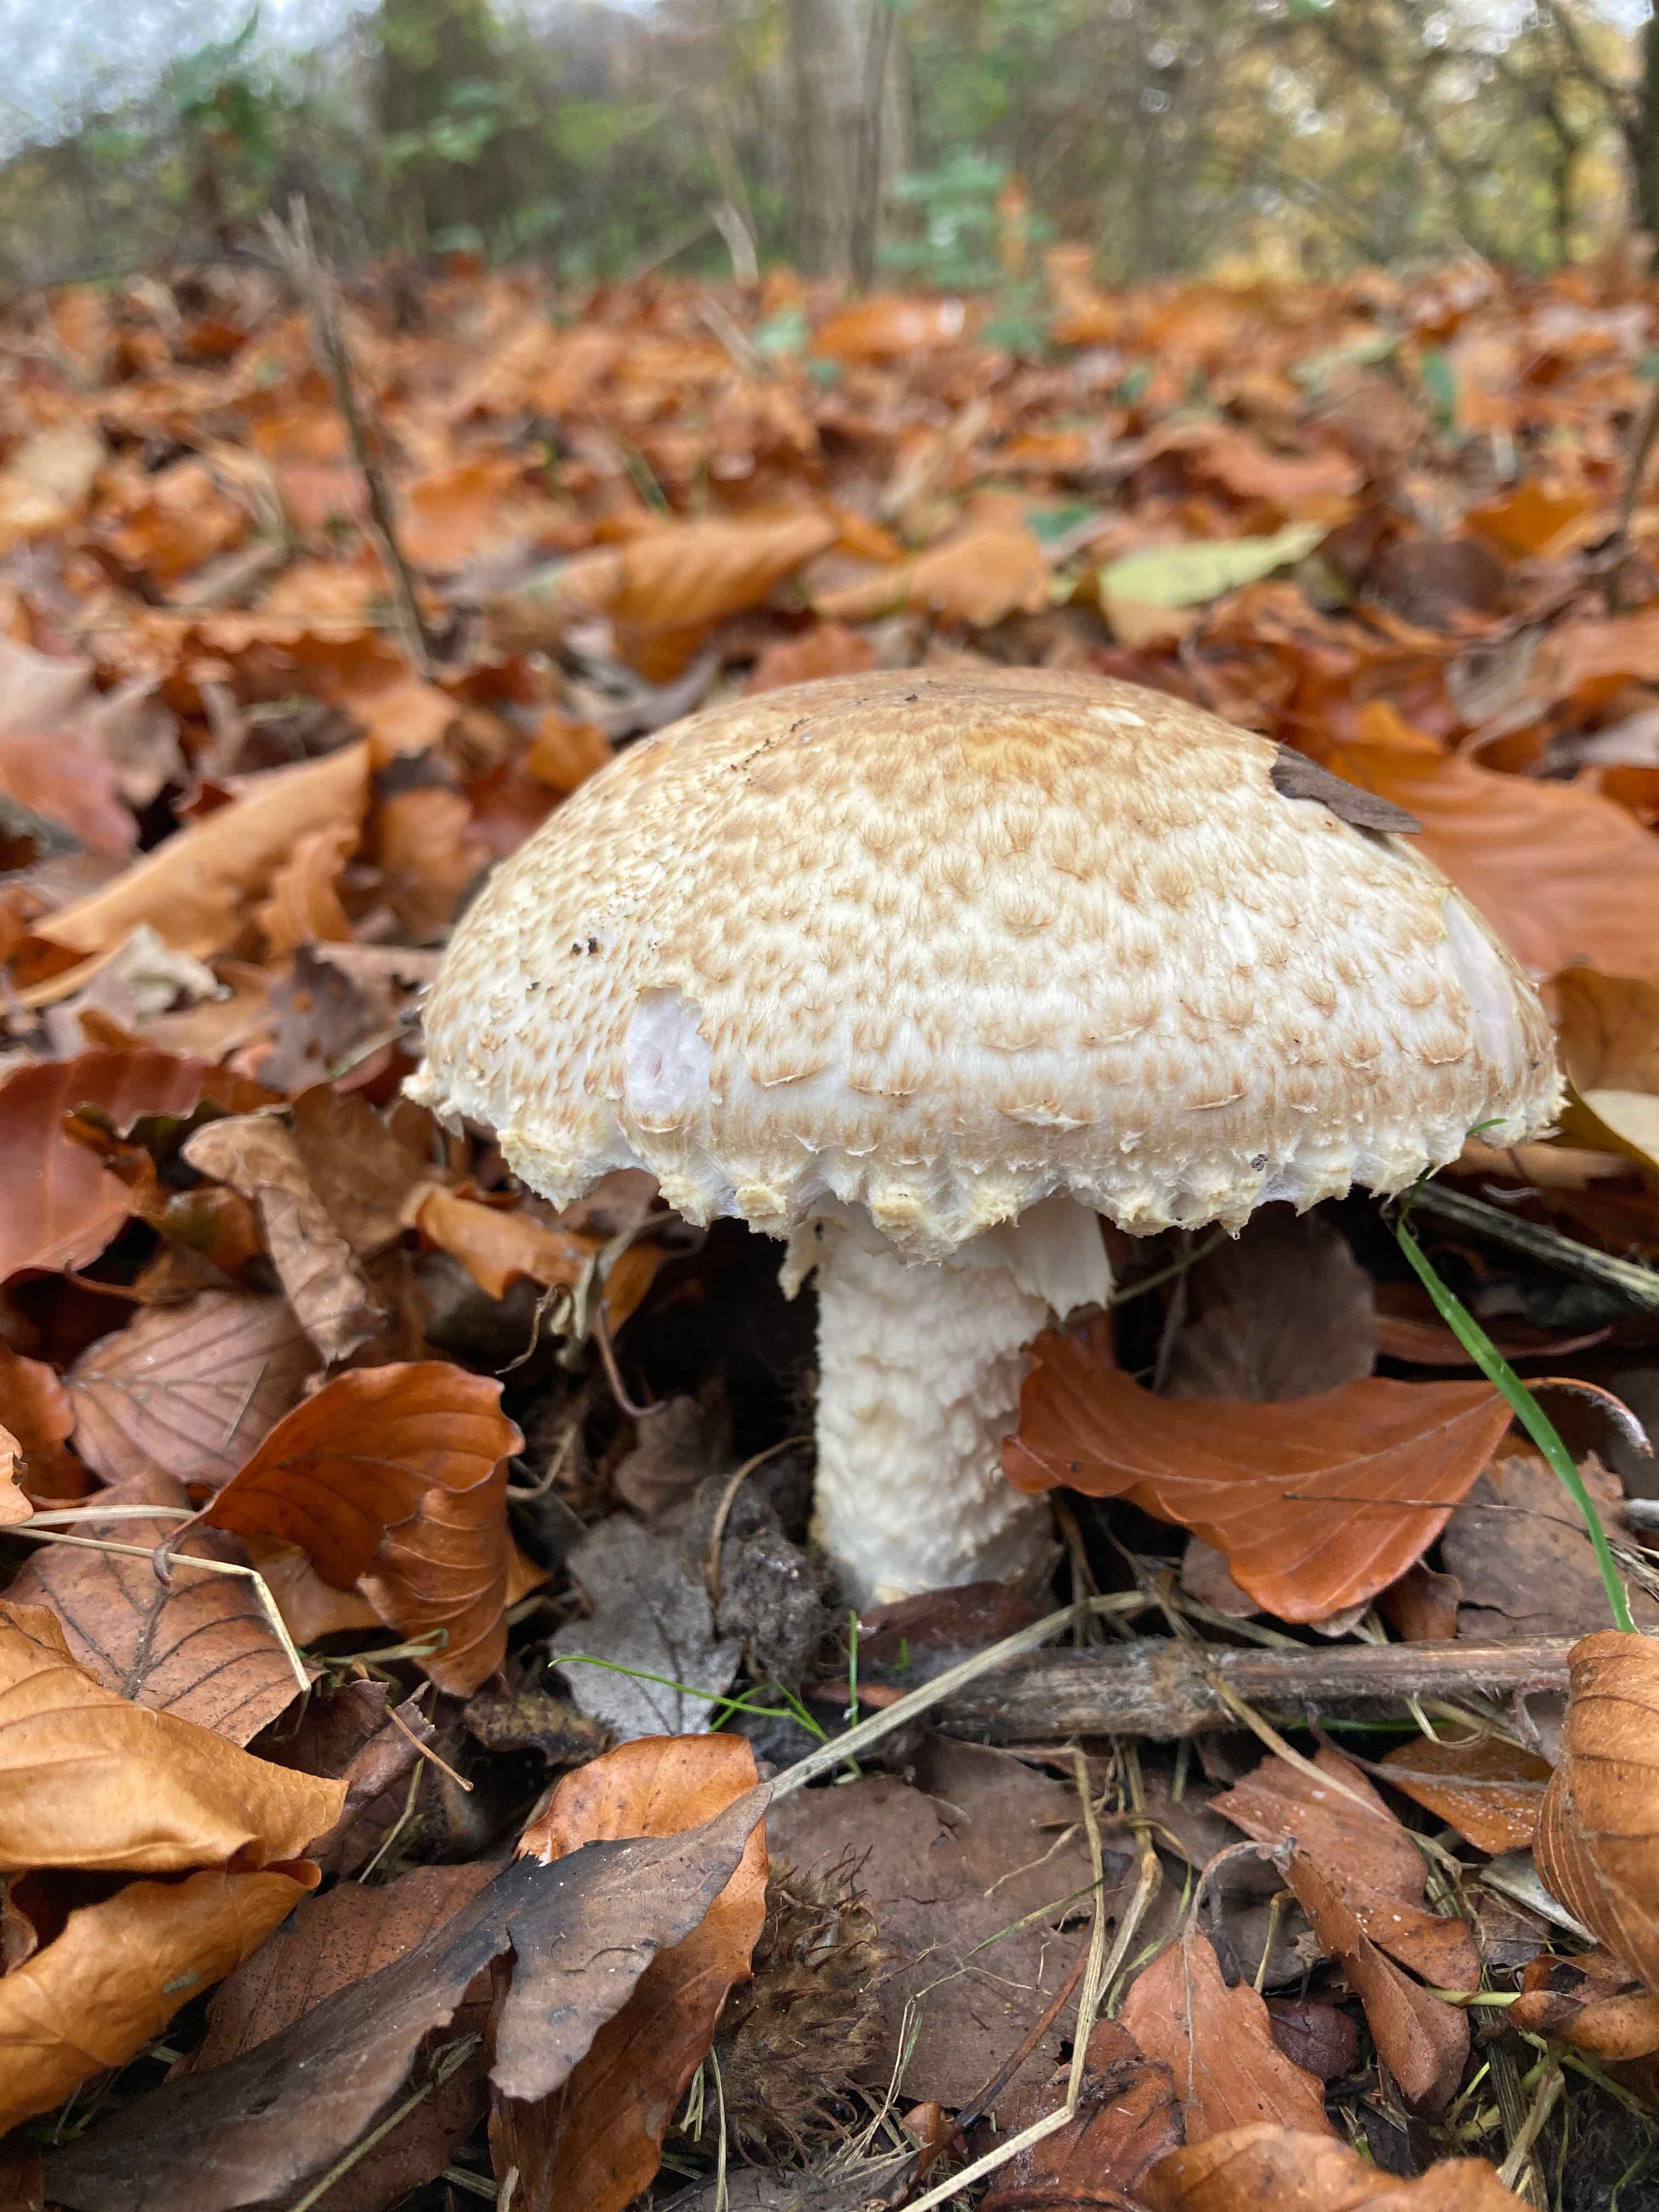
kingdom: Fungi
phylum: Basidiomycota
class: Agaricomycetes
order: Agaricales
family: Agaricaceae
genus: Agaricus
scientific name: Agaricus augustus
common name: prægtig champignon
